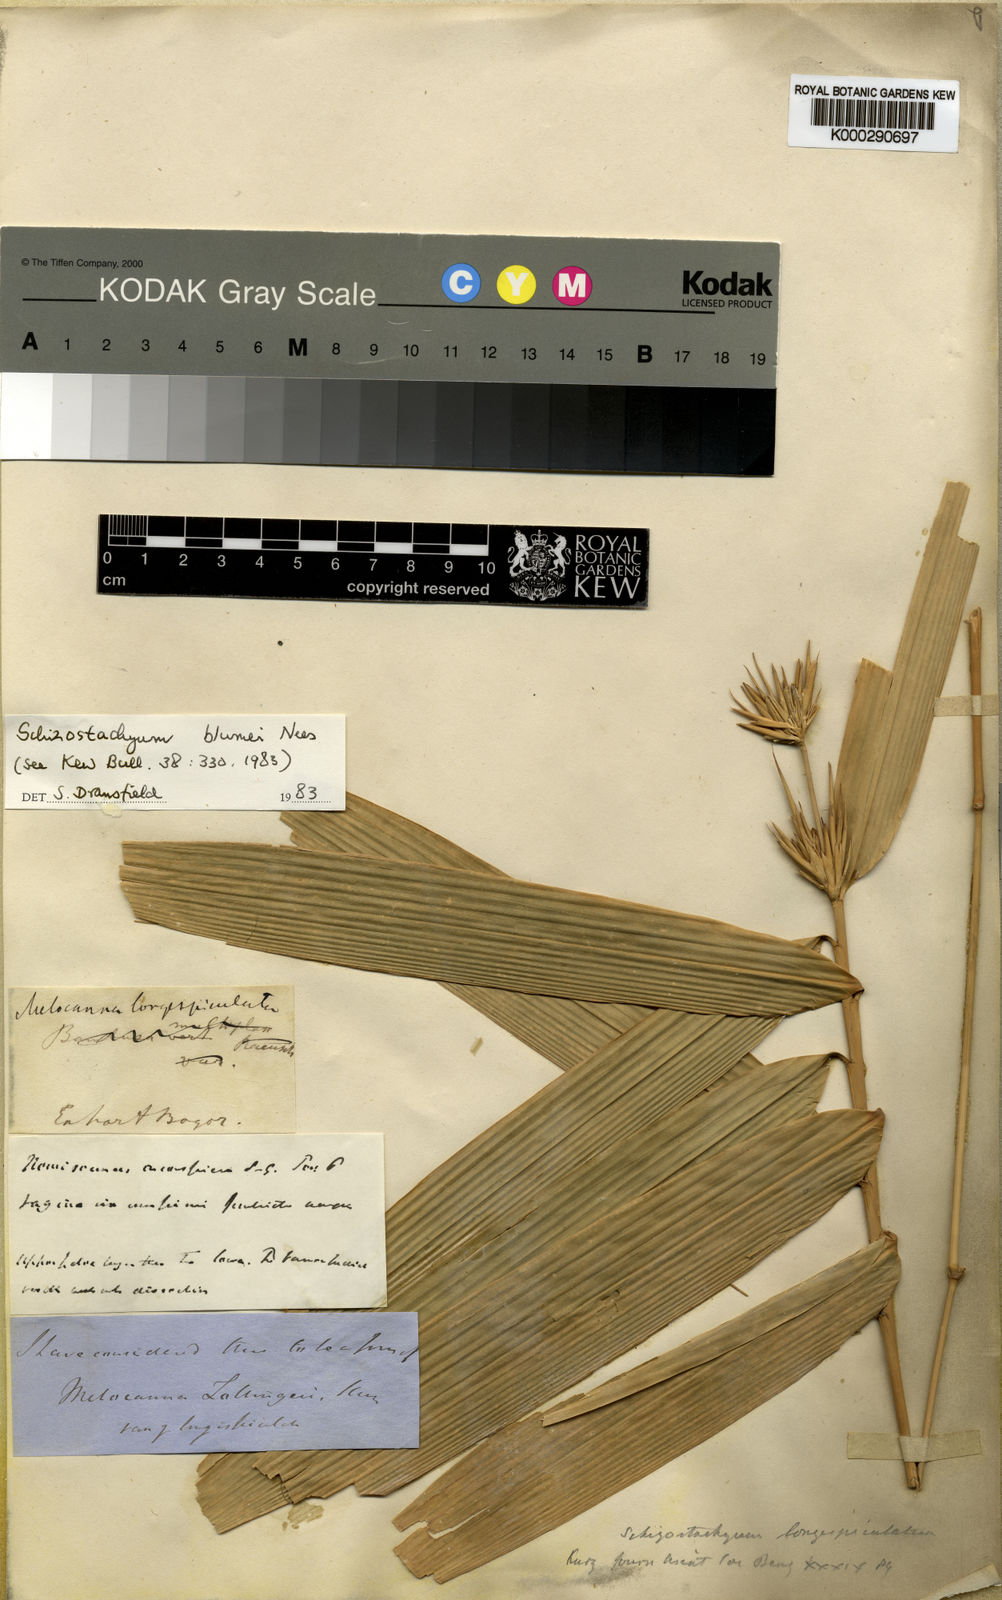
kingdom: Plantae
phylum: Tracheophyta
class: Liliopsida
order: Poales
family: Poaceae
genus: Schizostachyum
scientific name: Schizostachyum blumei
